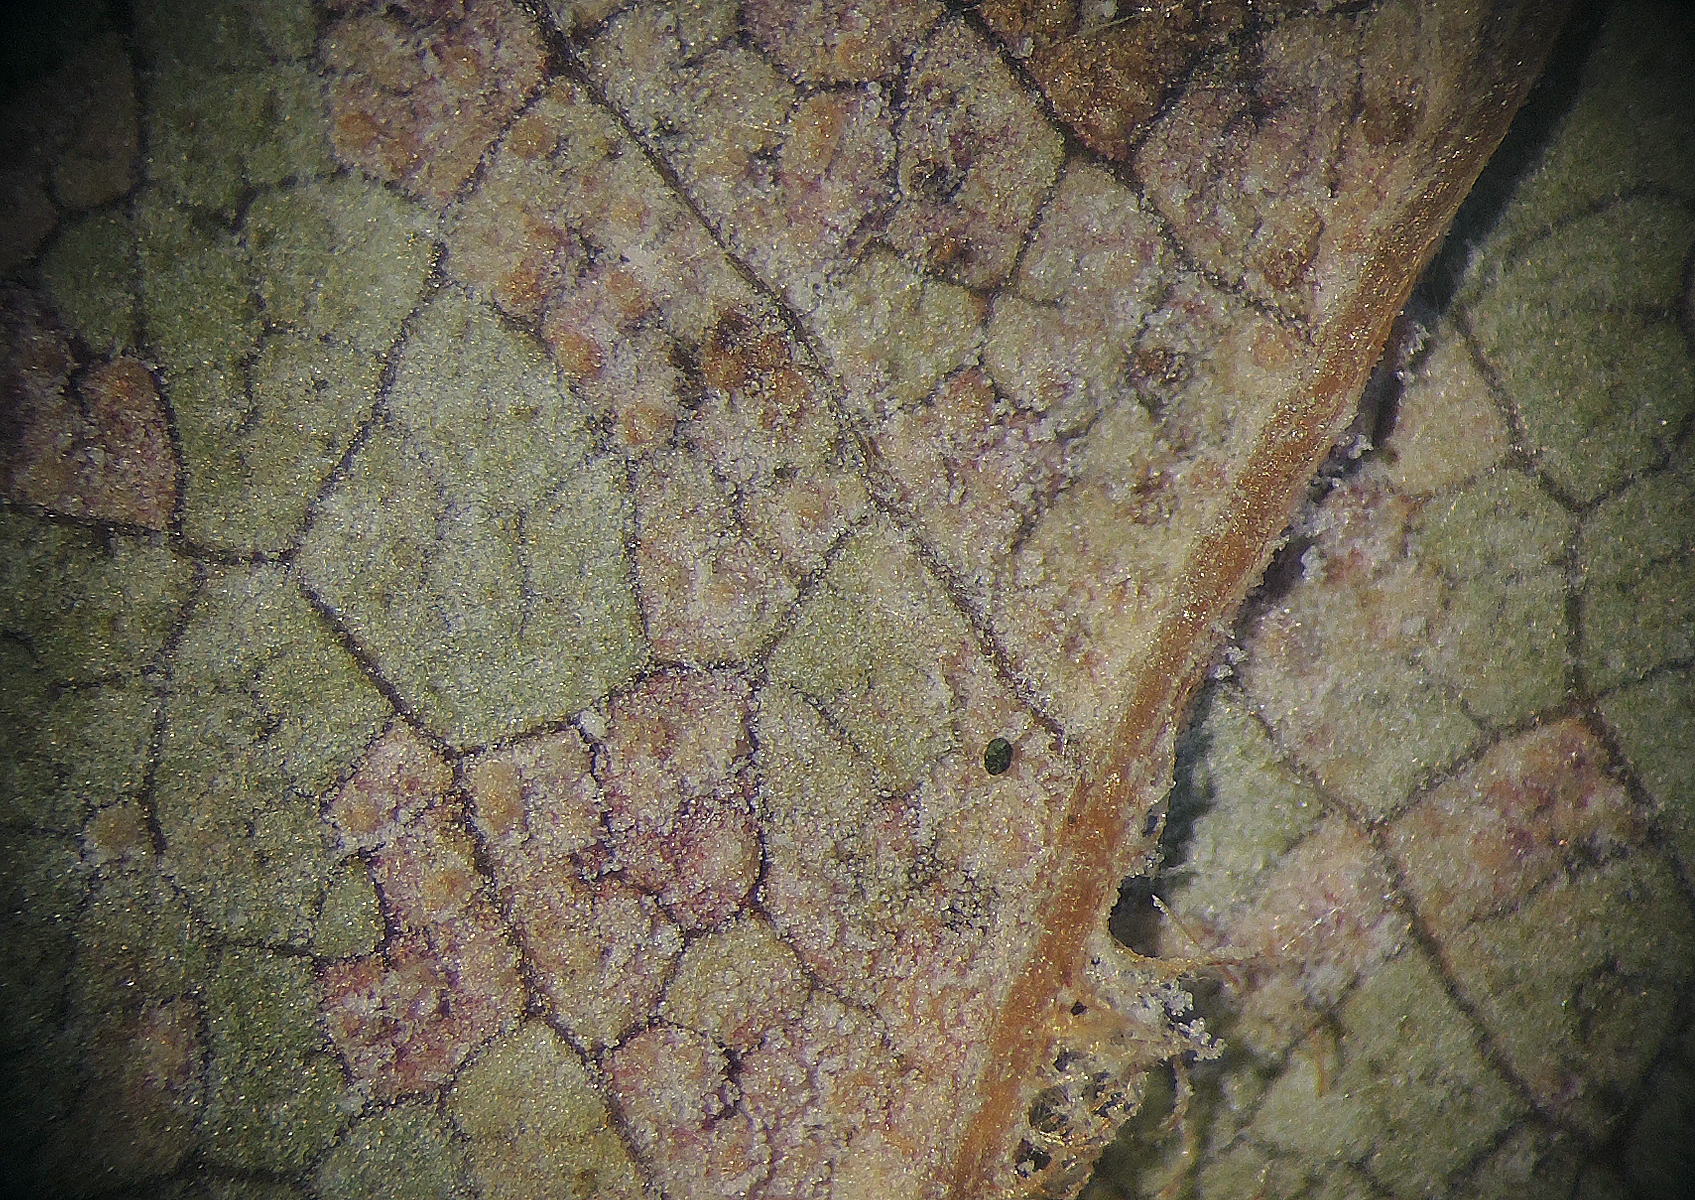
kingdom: Fungi
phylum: Basidiomycota
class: Pucciniomycetes
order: Pucciniales
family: Pucciniastraceae
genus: Thekopsora
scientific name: Thekopsora areolata
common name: grankogle-nålerust
